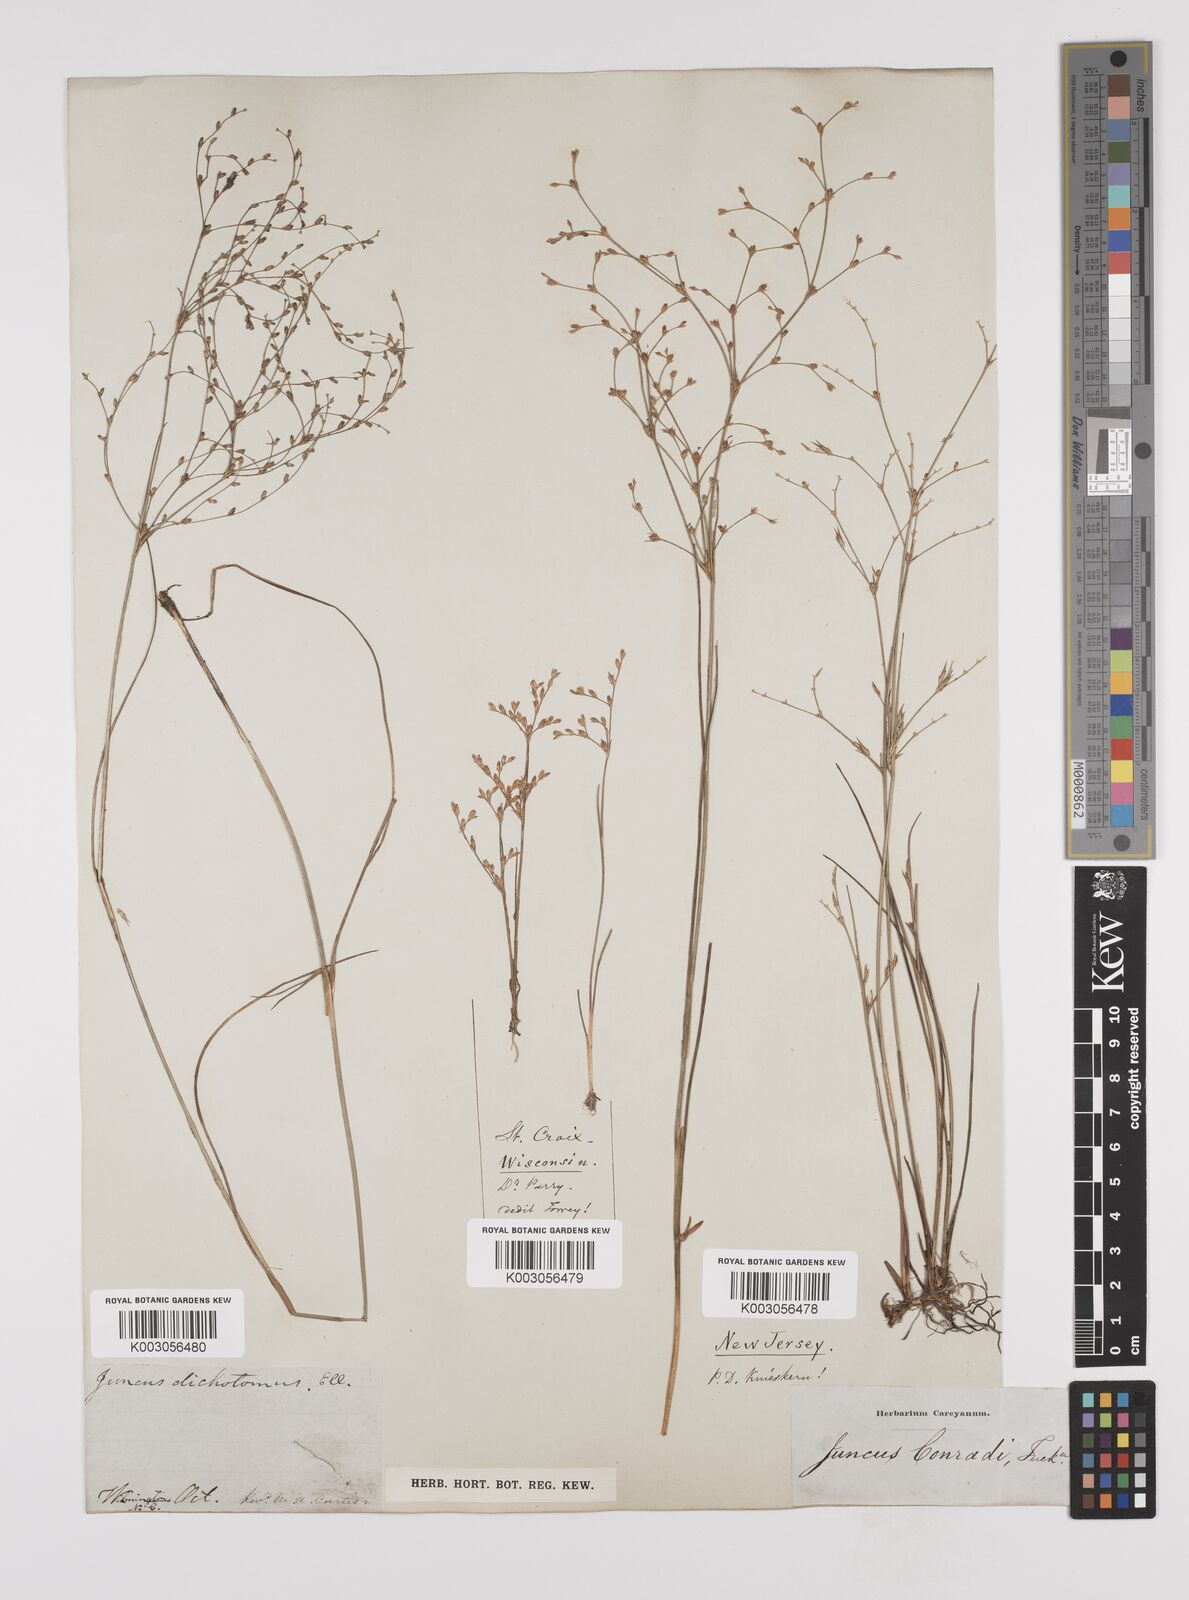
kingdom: Plantae
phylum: Tracheophyta
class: Liliopsida
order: Poales
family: Juncaceae
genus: Juncus
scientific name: Juncus dichotomus
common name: Forked rush
